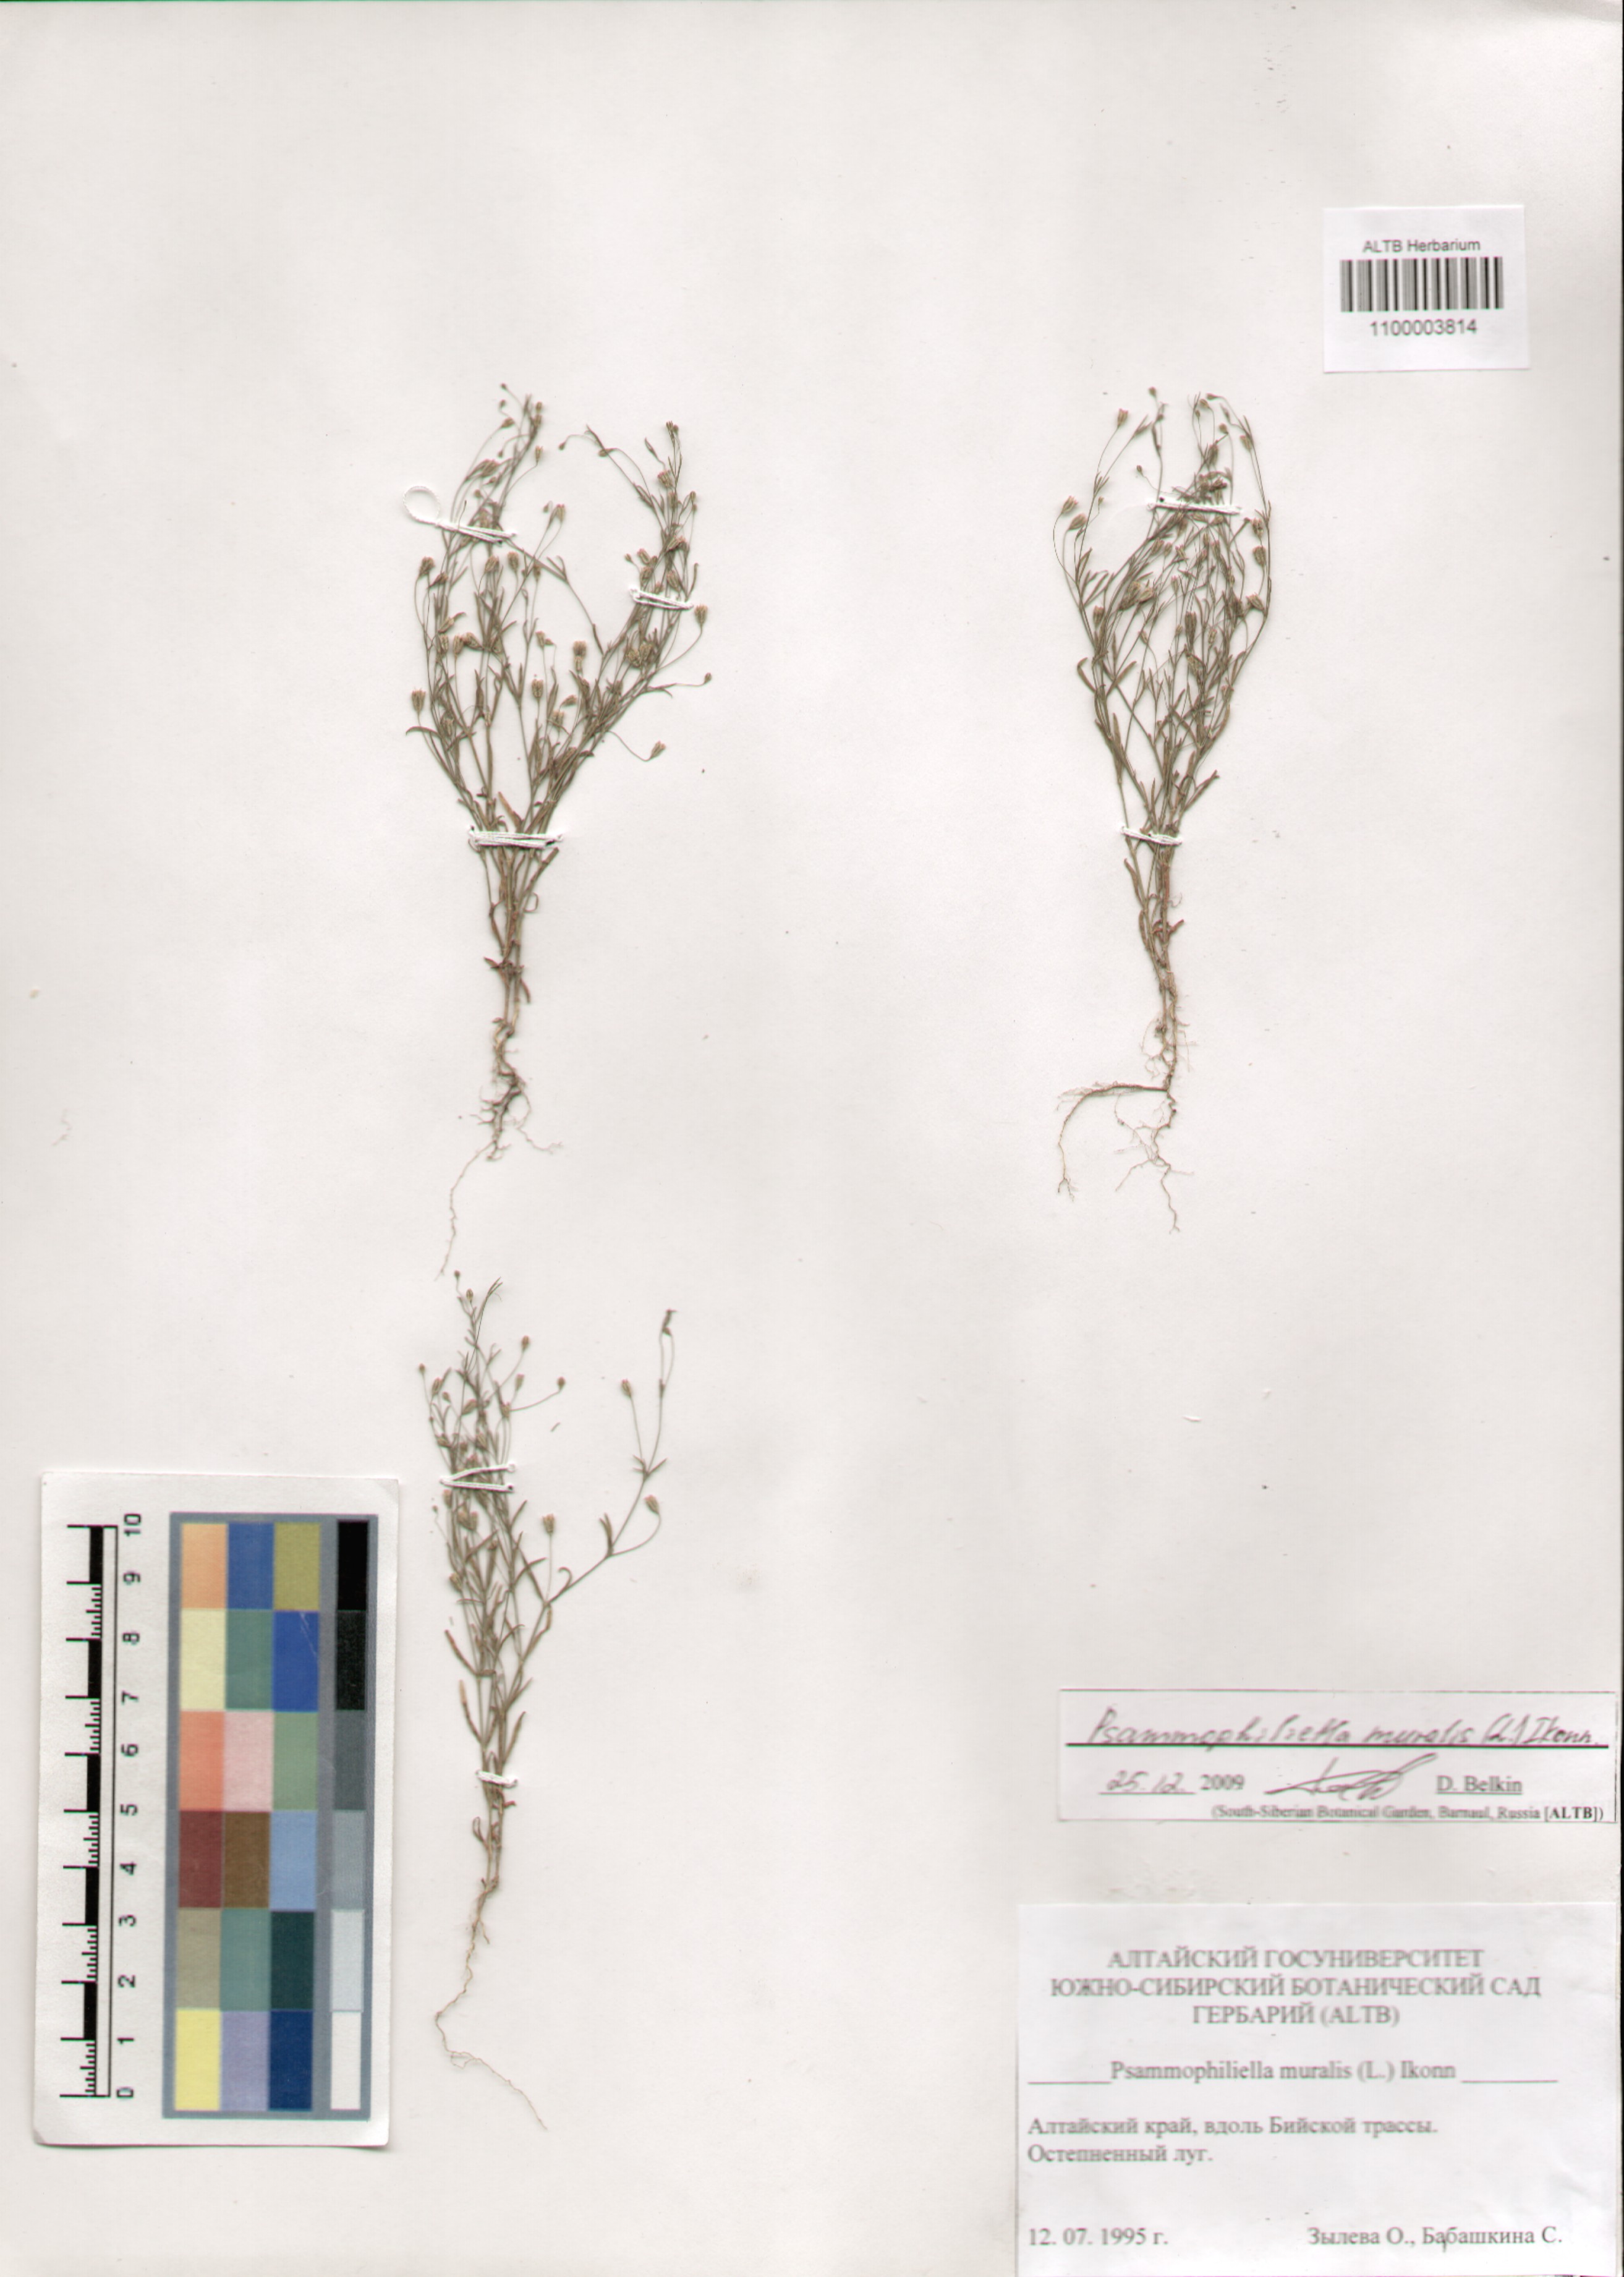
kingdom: Plantae
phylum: Tracheophyta
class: Magnoliopsida
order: Caryophyllales
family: Caryophyllaceae
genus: Psammophiliella
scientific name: Psammophiliella muralis
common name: Cushion baby's-breath
